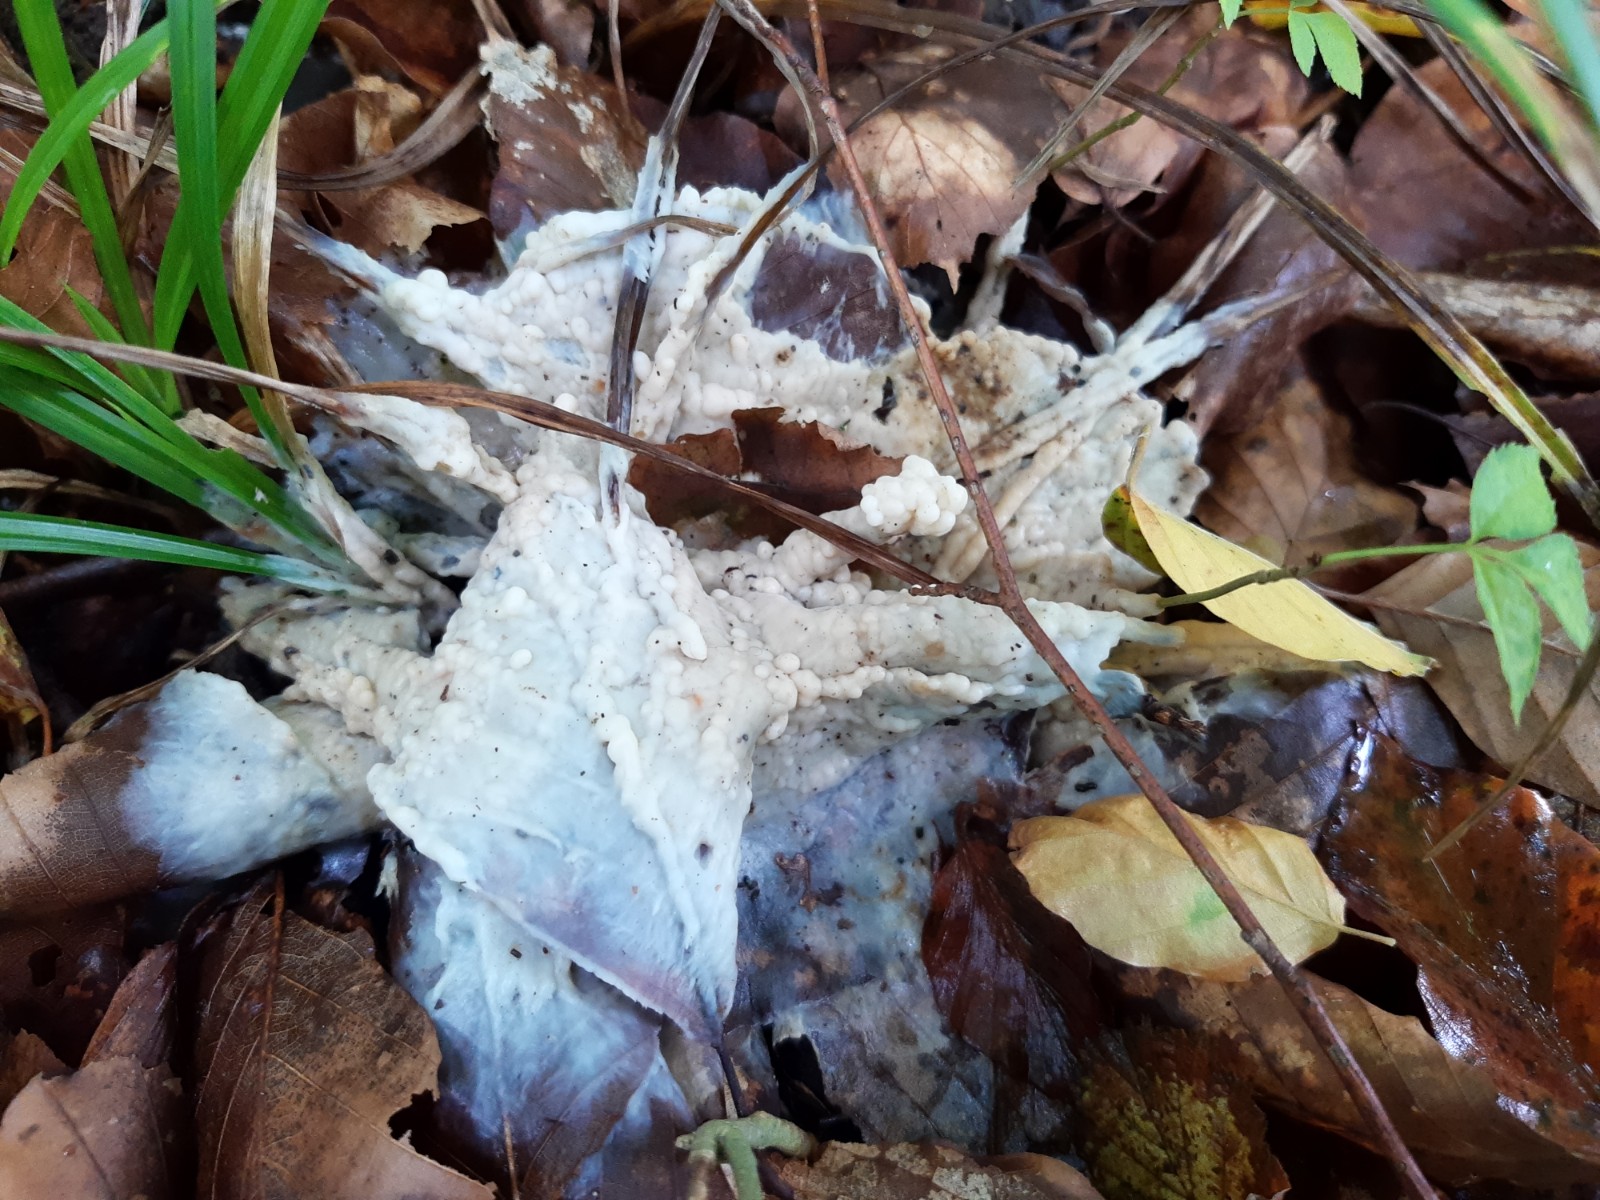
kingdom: Fungi
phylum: Basidiomycota
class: Agaricomycetes
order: Sebacinales
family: Sebacinaceae
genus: Sebacina
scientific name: Sebacina incrustans
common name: krybende bævretalg
